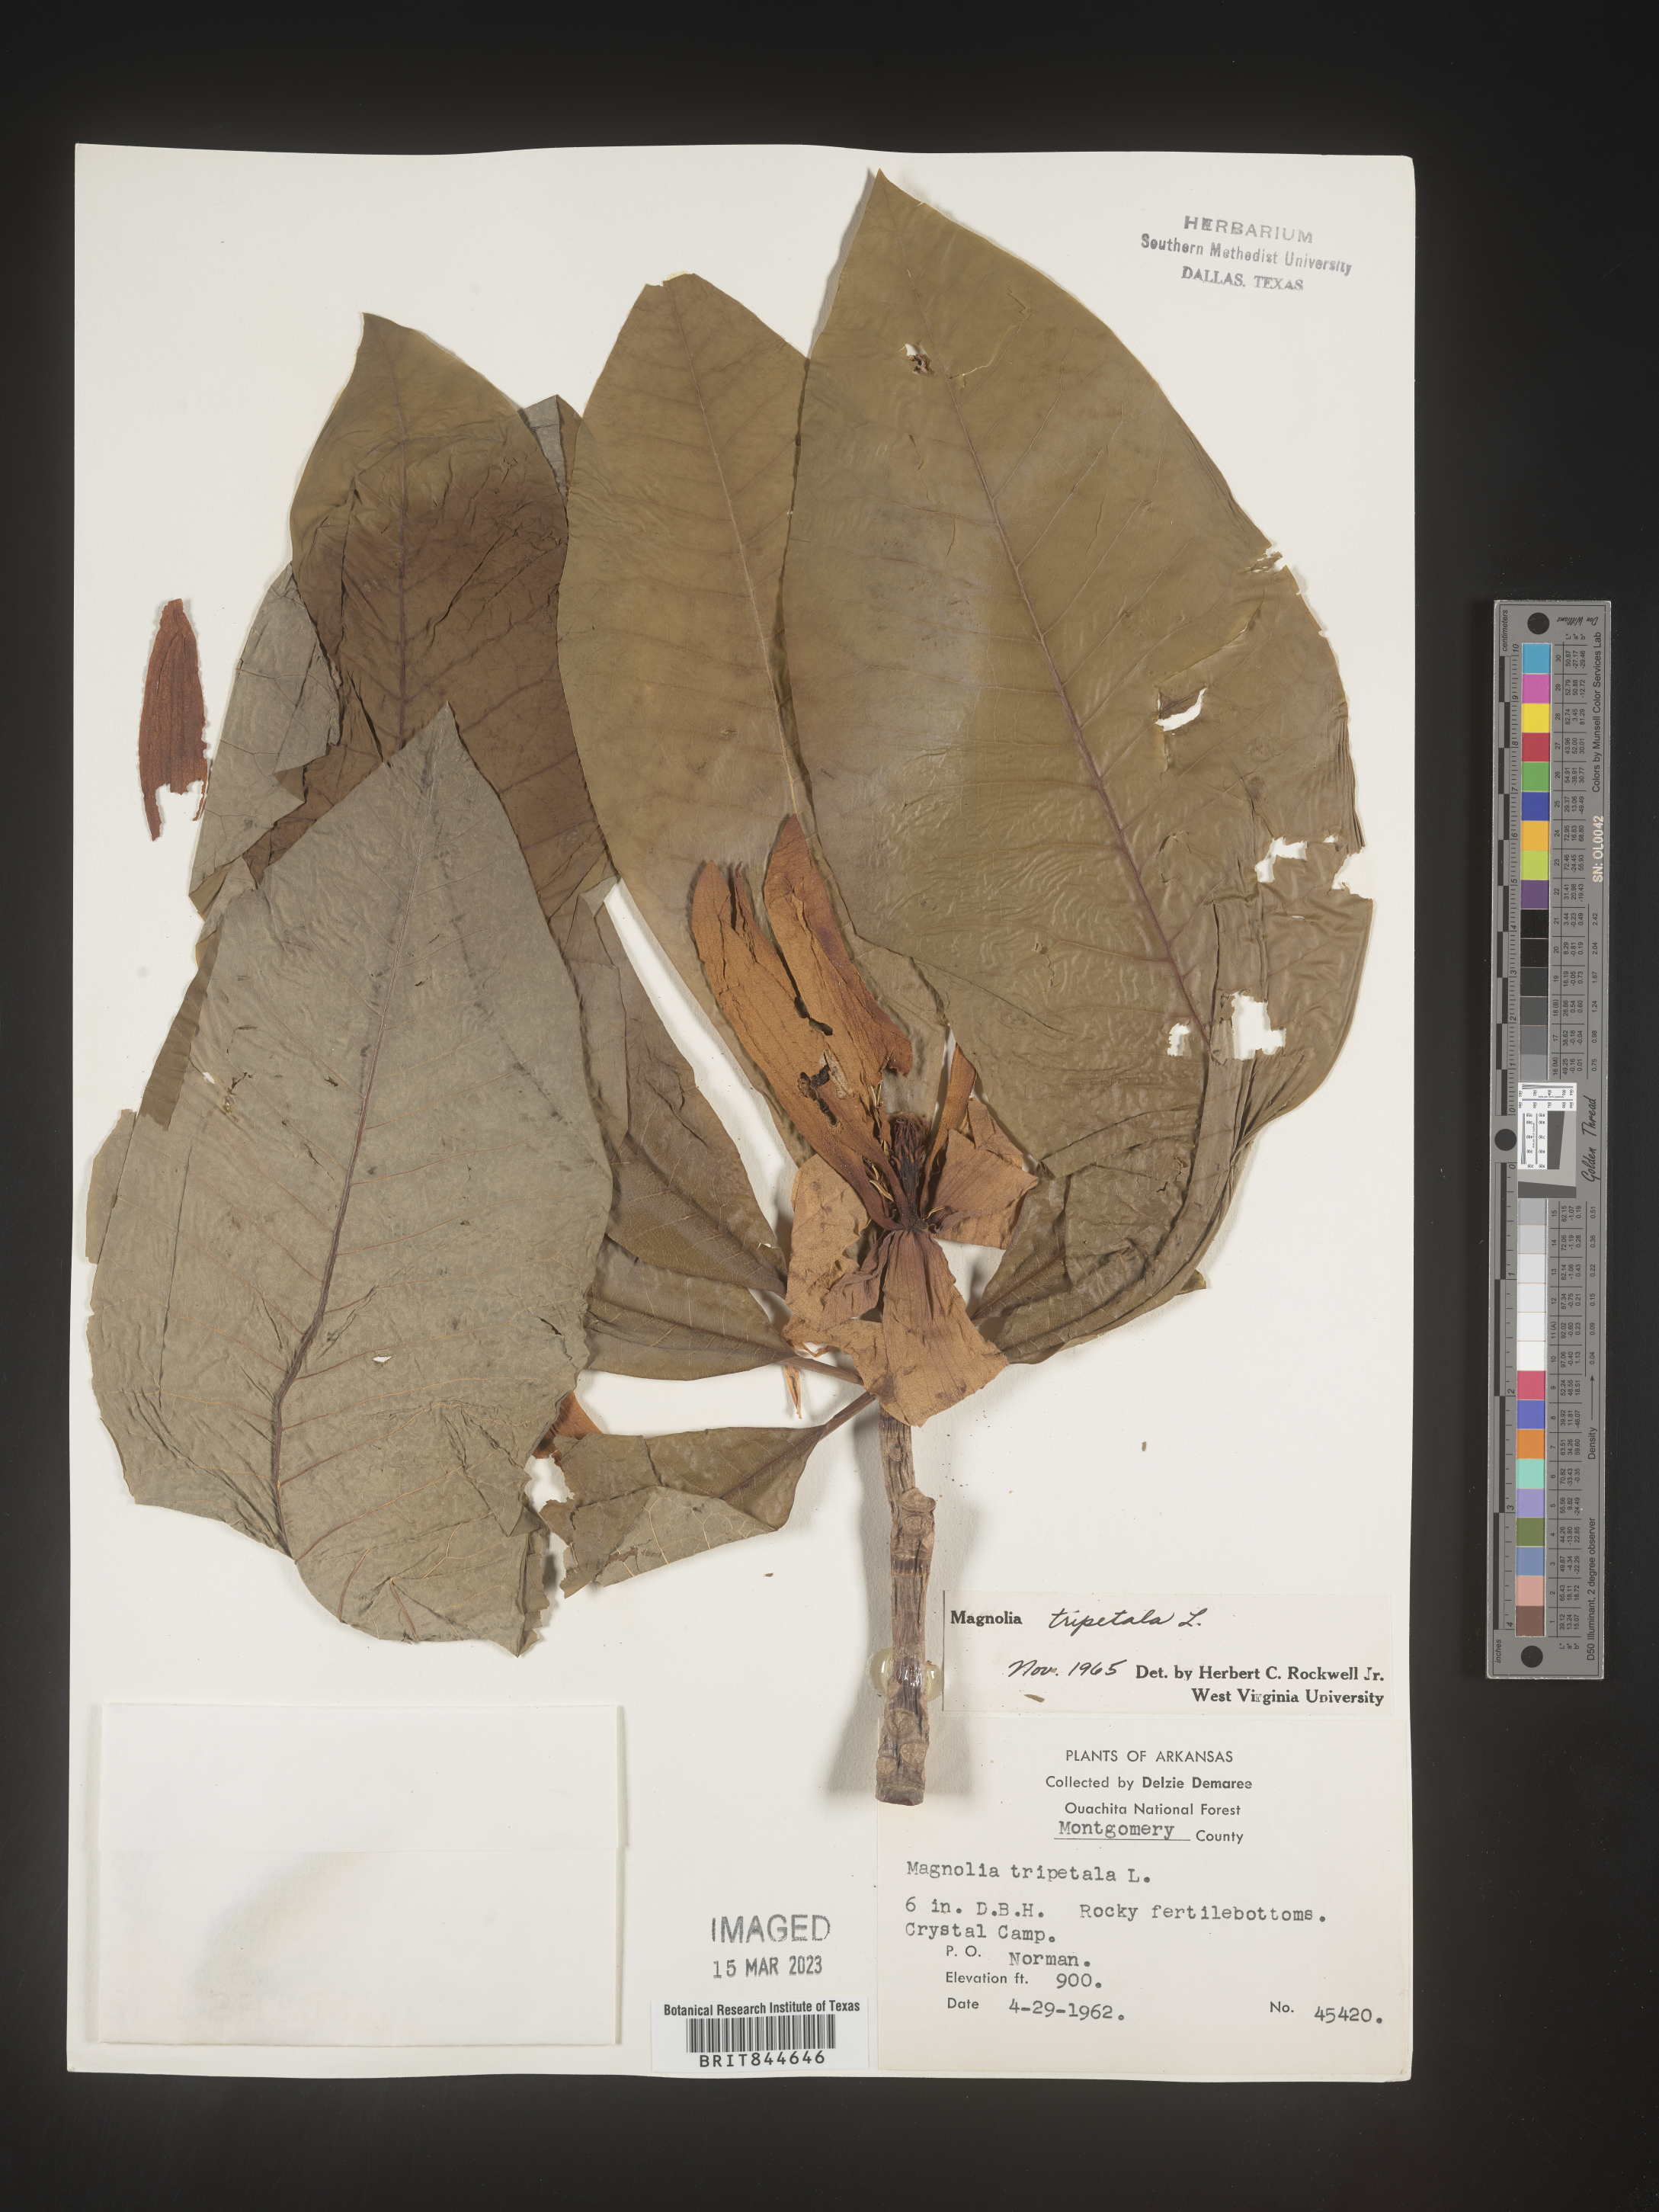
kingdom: Plantae
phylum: Tracheophyta
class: Magnoliopsida
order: Magnoliales
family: Magnoliaceae
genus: Magnolia
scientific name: Magnolia tripetala
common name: Umbrella magnolia
